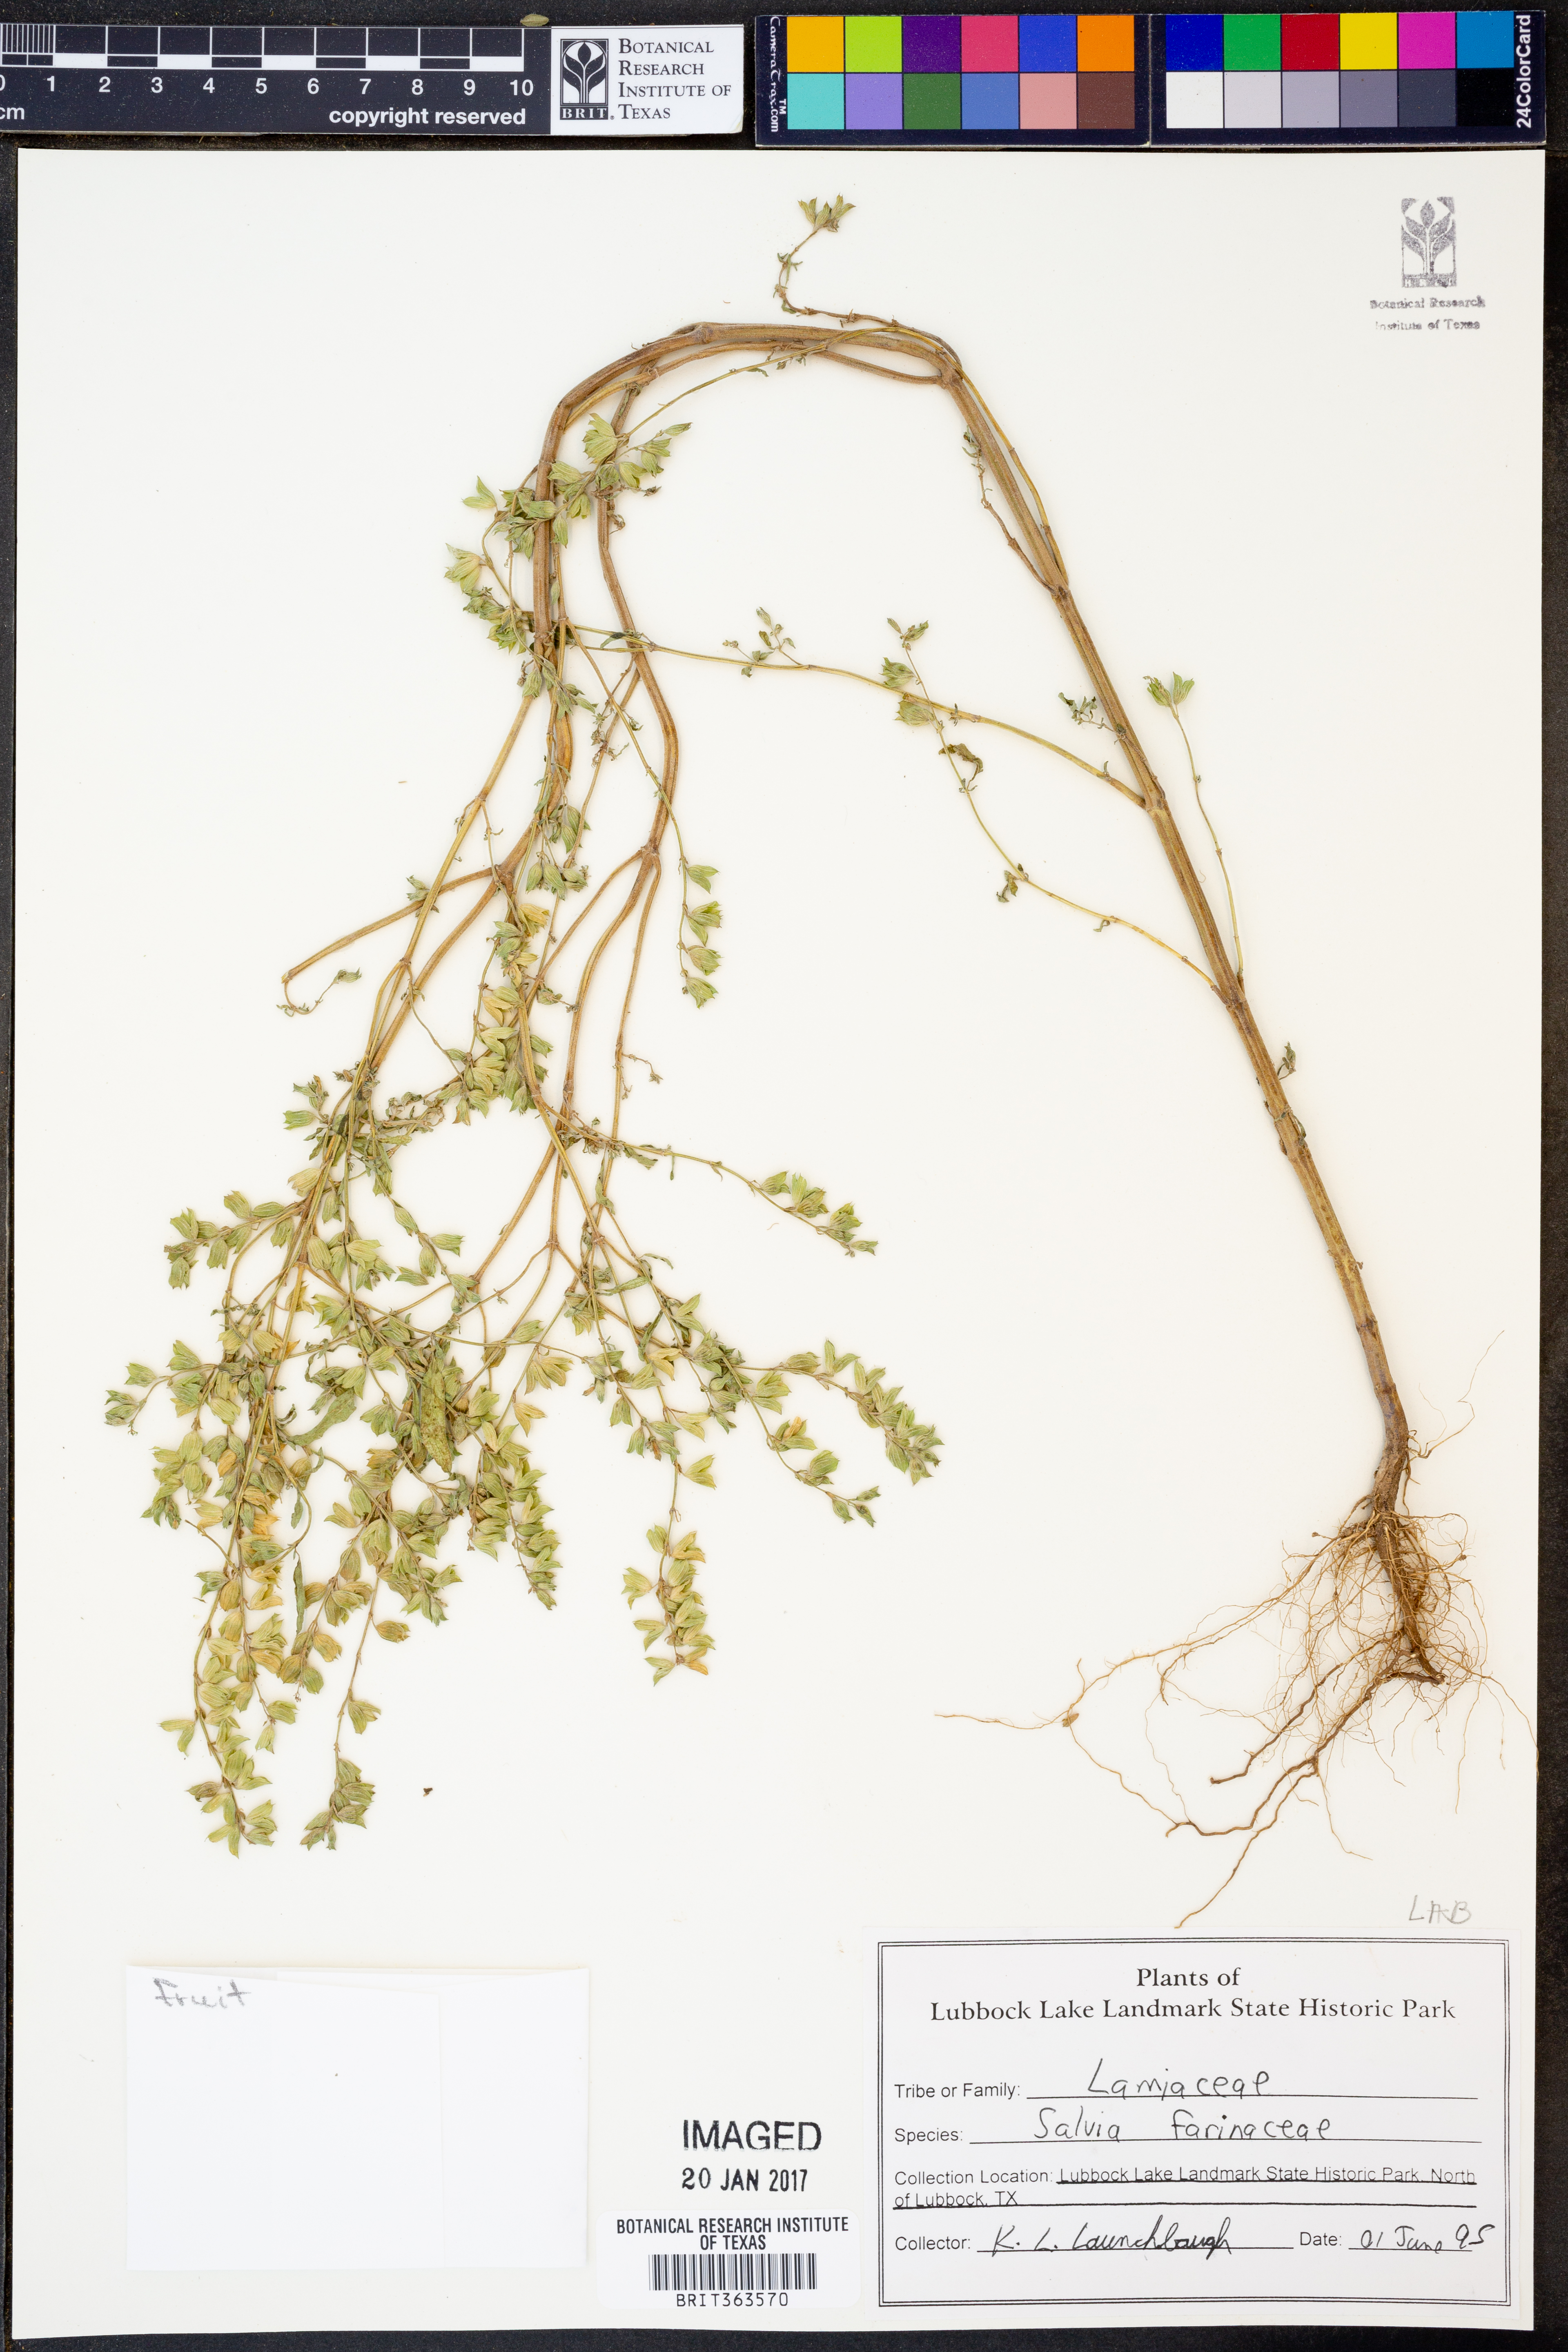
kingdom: Plantae
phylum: Tracheophyta
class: Magnoliopsida
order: Lamiales
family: Lamiaceae
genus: Salvia
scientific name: Salvia farinacea
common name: Mealy sage
